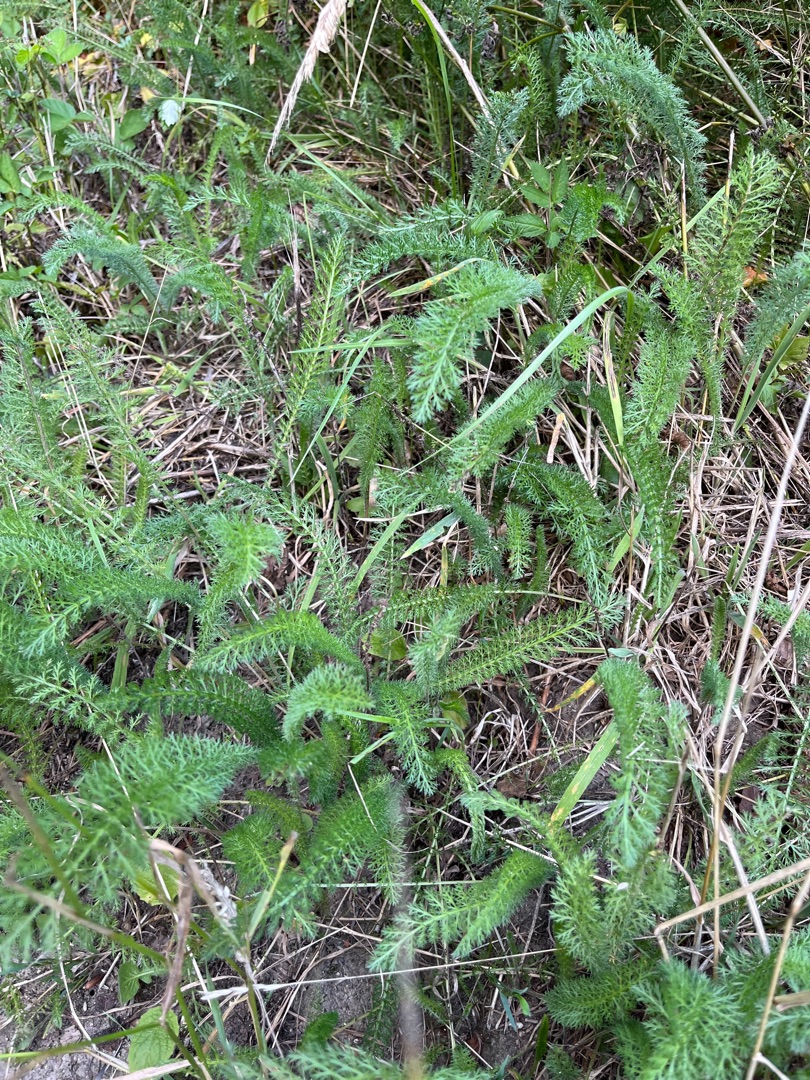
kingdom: Plantae
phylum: Tracheophyta
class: Magnoliopsida
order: Asterales
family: Asteraceae
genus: Achillea
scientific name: Achillea millefolium
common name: Almindelig røllike
